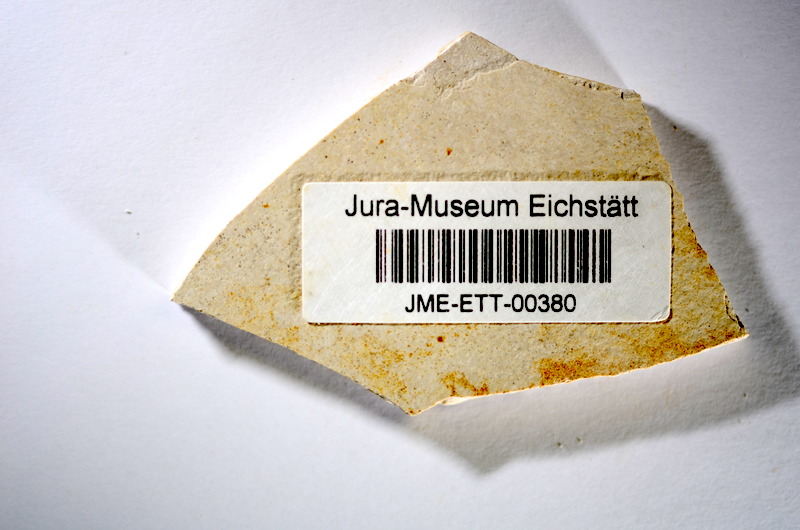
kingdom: Animalia
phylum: Chordata
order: Salmoniformes
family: Orthogonikleithridae
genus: Orthogonikleithrus
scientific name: Orthogonikleithrus hoelli
